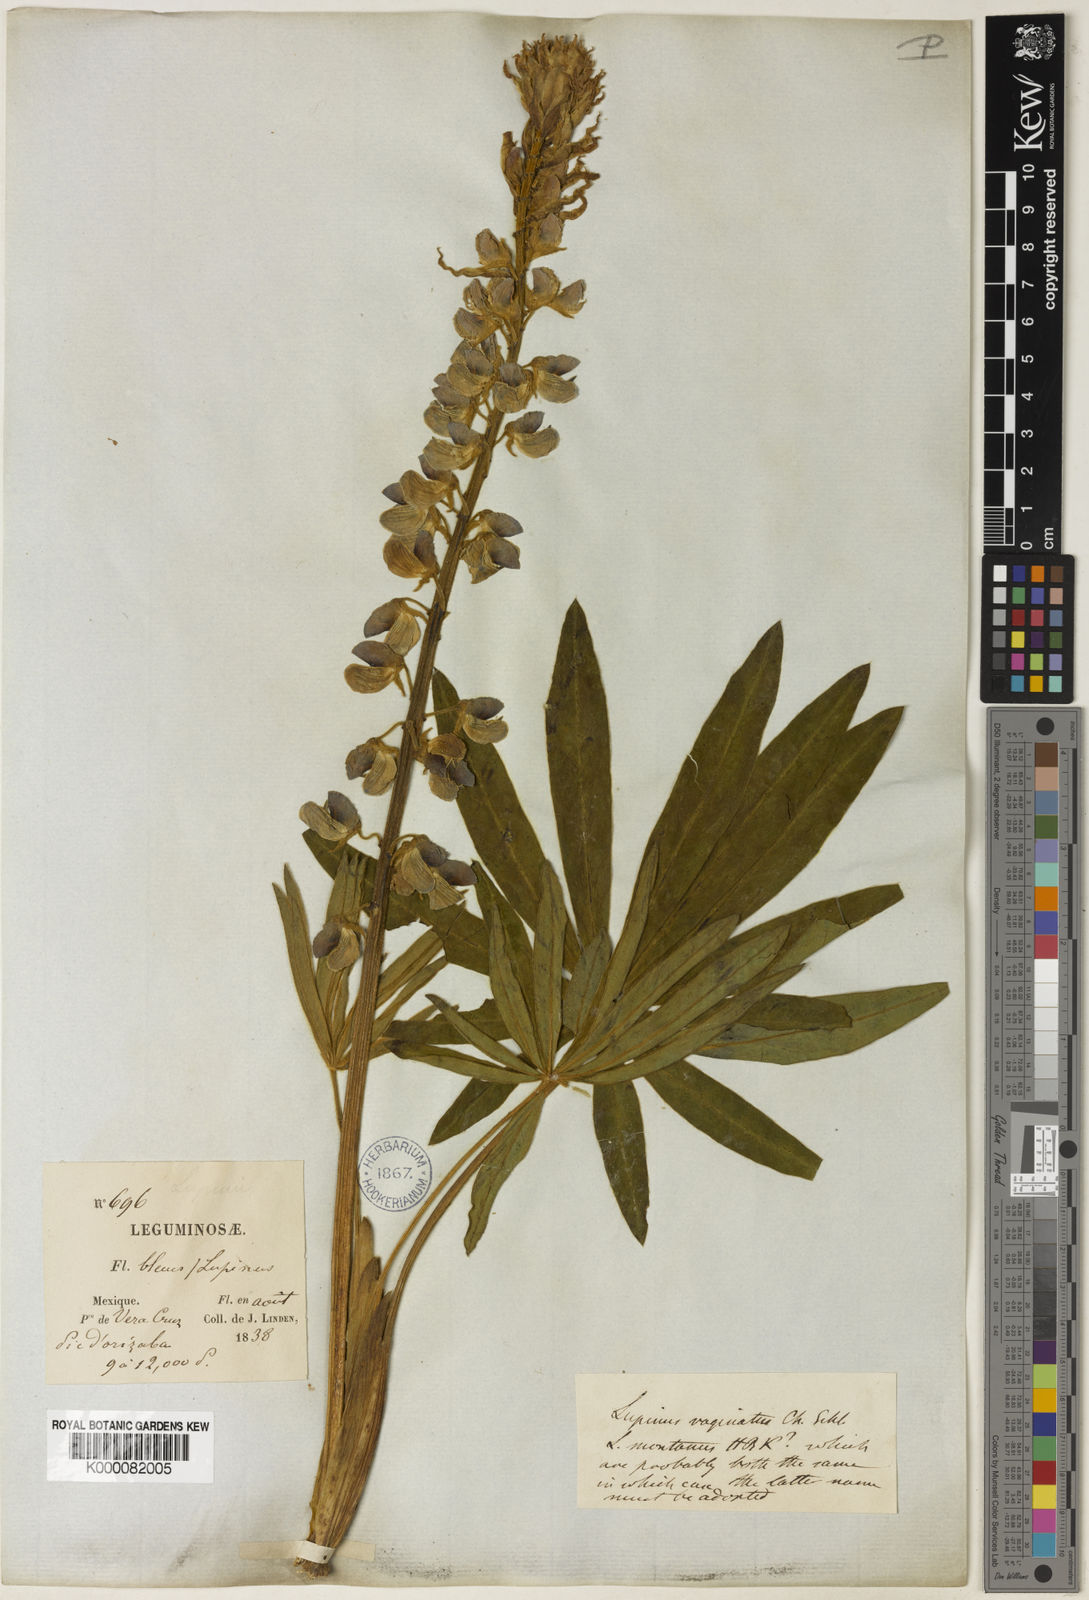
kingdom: Plantae
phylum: Tracheophyta
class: Magnoliopsida
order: Fabales
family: Fabaceae
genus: Lupinus
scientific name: Lupinus montanus
